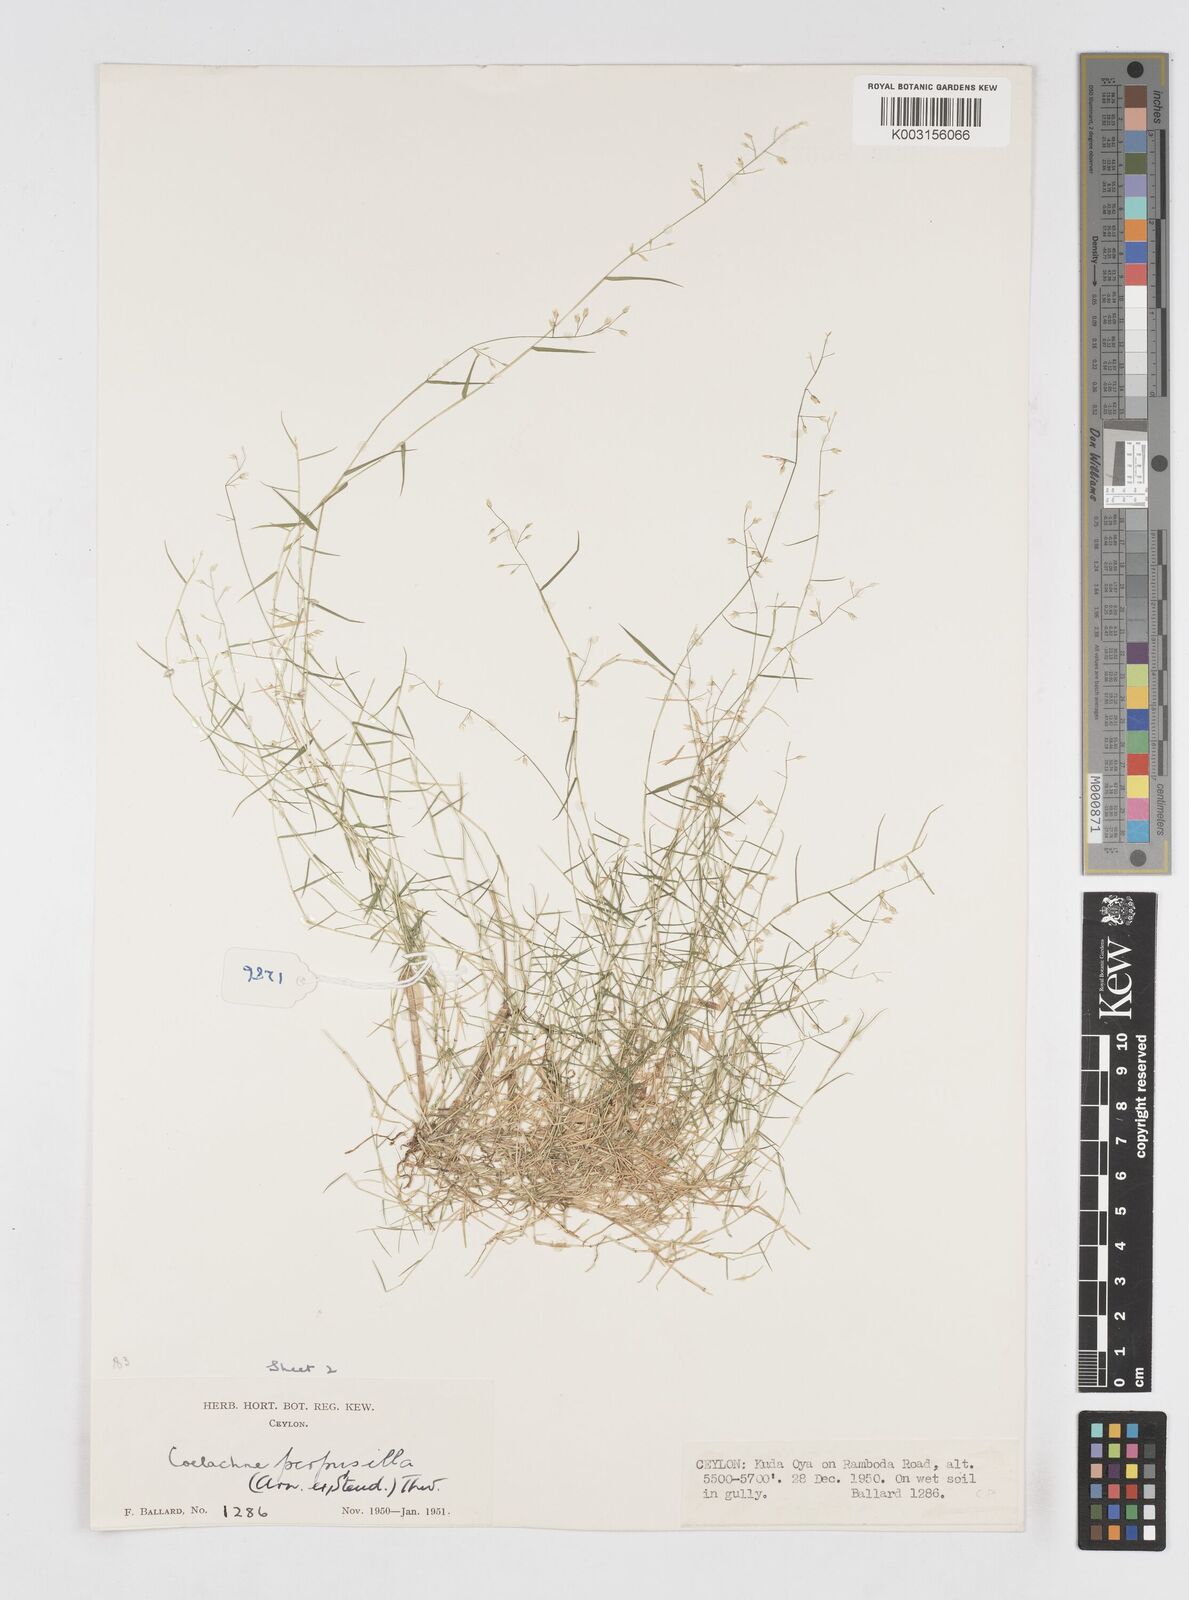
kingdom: Plantae
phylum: Tracheophyta
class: Liliopsida
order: Poales
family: Poaceae
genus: Coelachne
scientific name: Coelachne perpusilla
